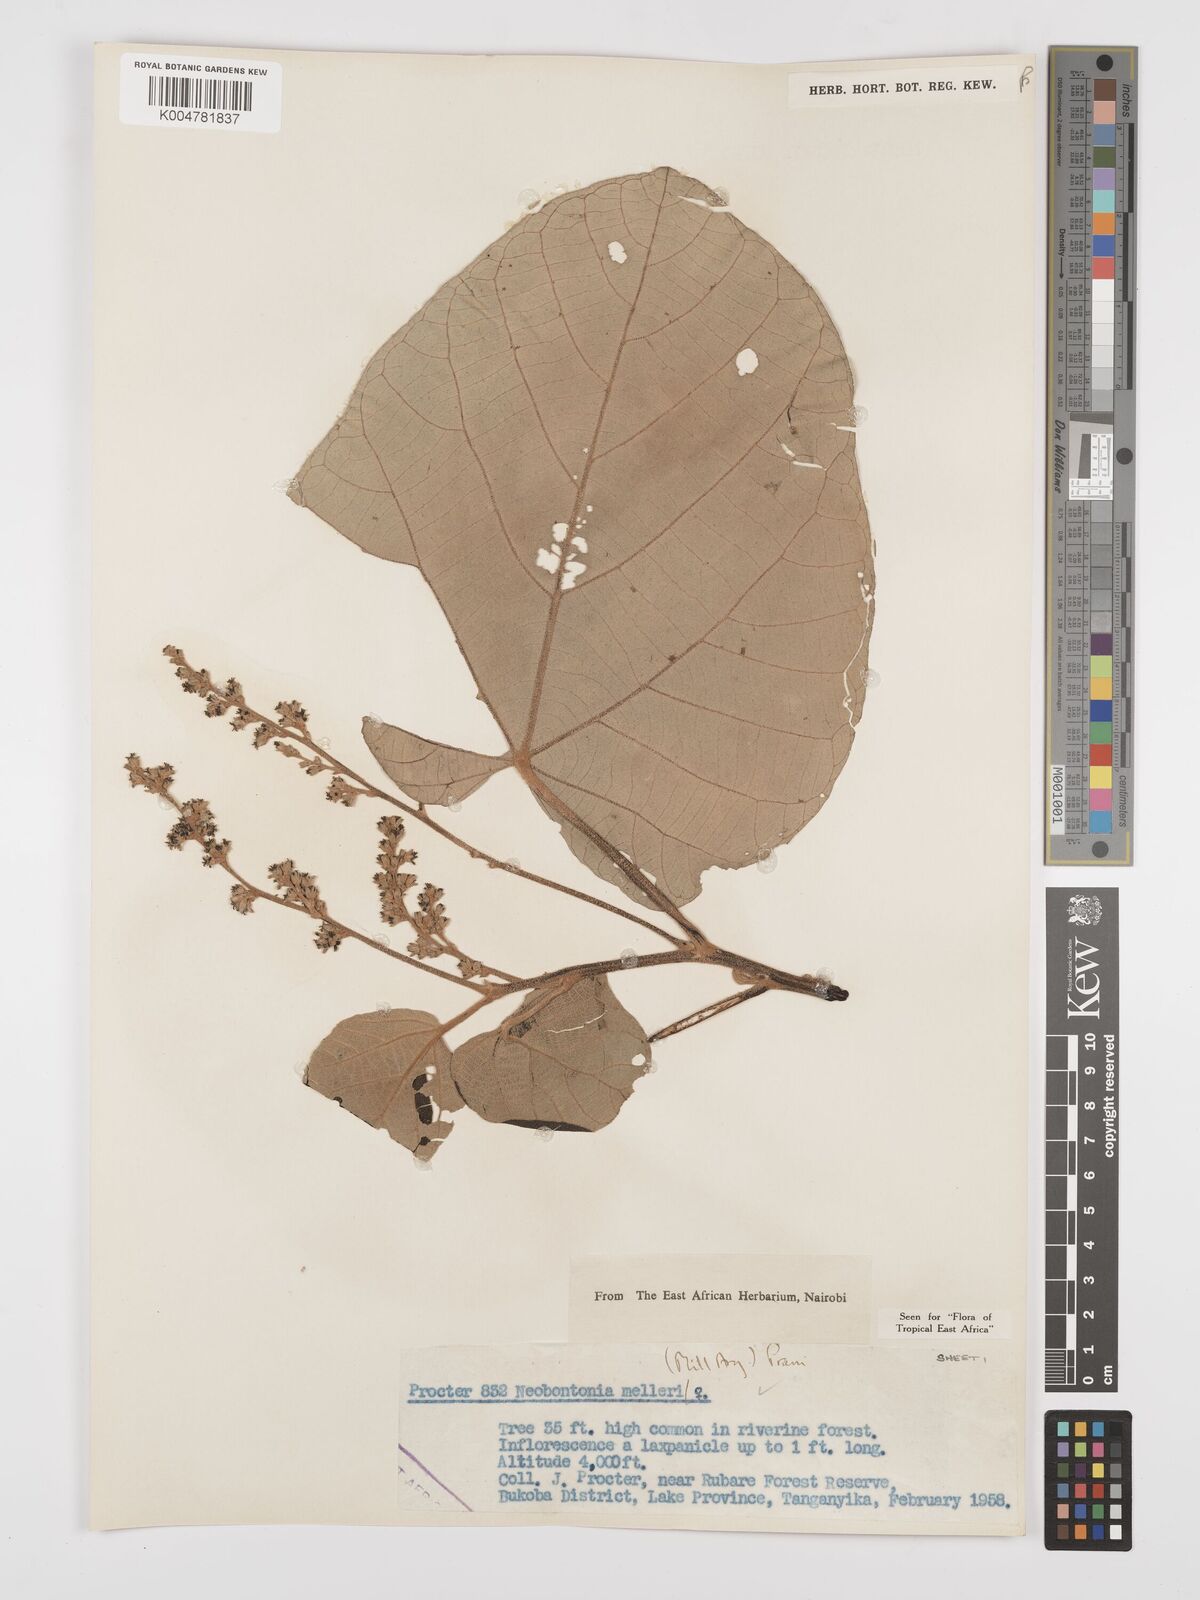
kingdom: Plantae
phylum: Tracheophyta
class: Magnoliopsida
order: Malpighiales
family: Euphorbiaceae
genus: Neoboutonia
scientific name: Neoboutonia melleri
